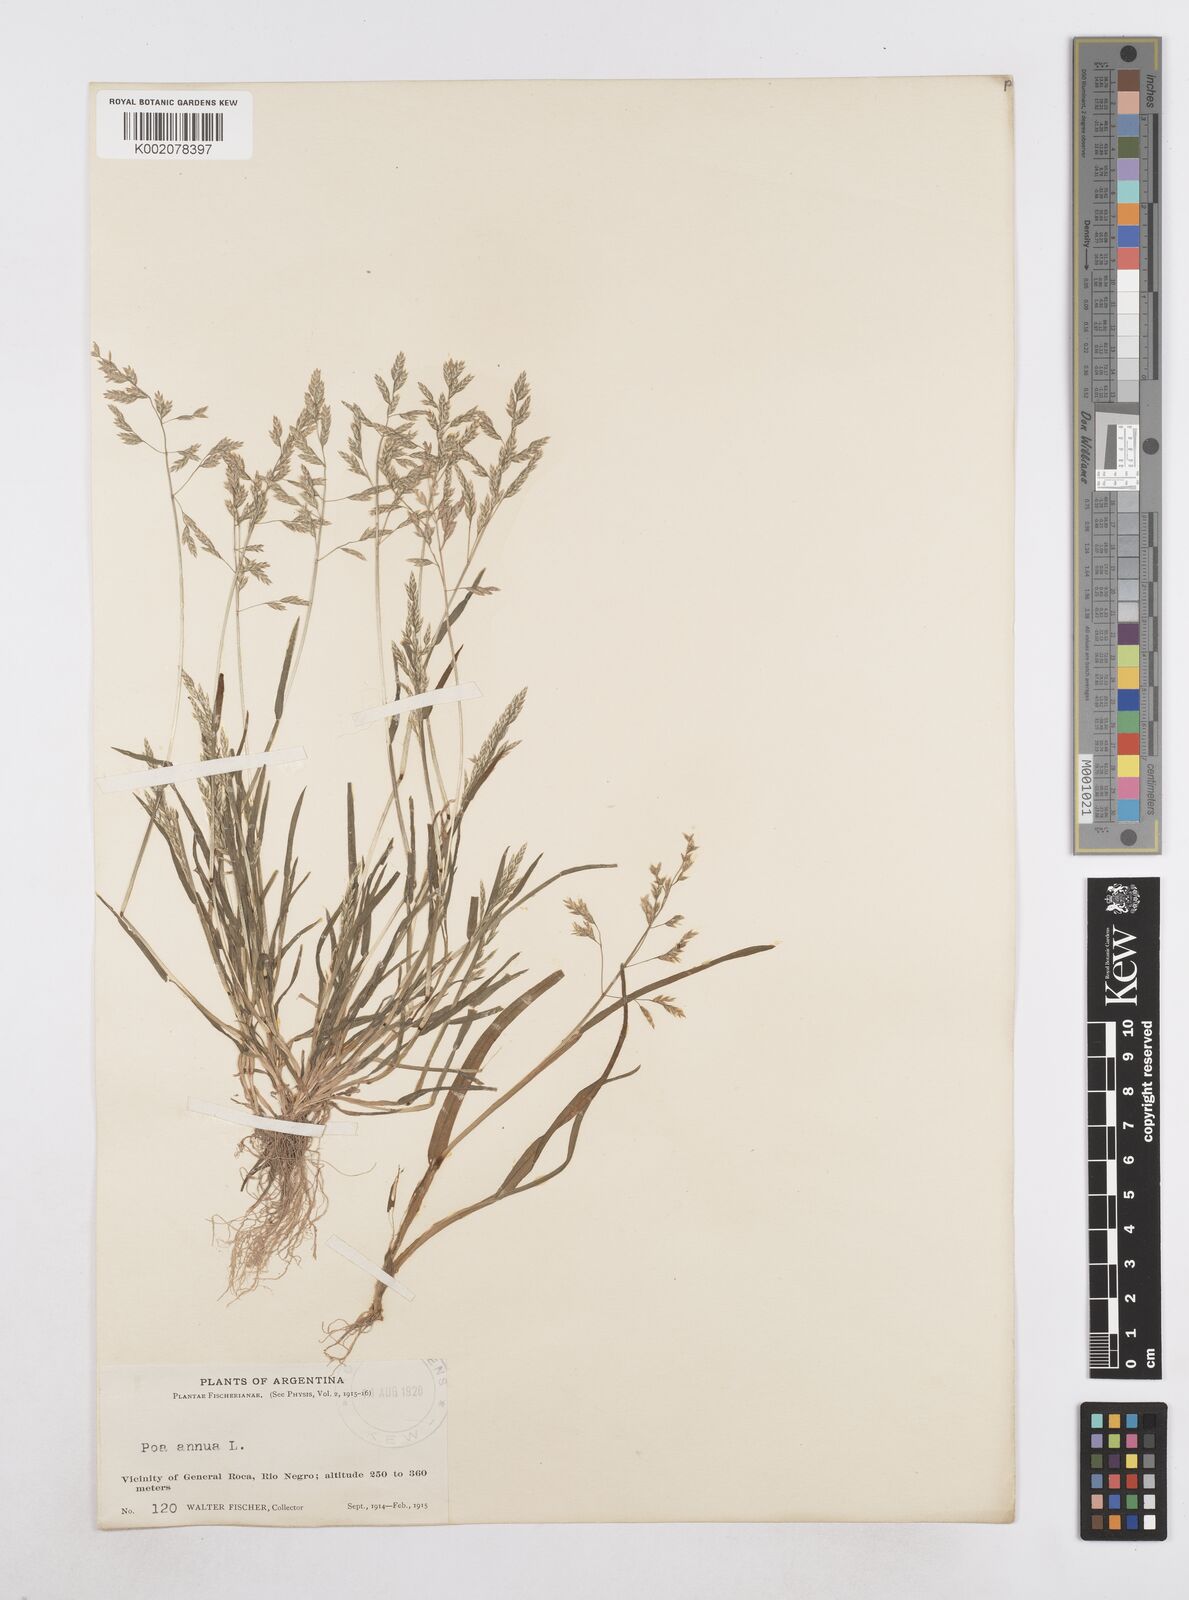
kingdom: Plantae
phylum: Tracheophyta
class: Liliopsida
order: Poales
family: Poaceae
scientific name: Poaceae
